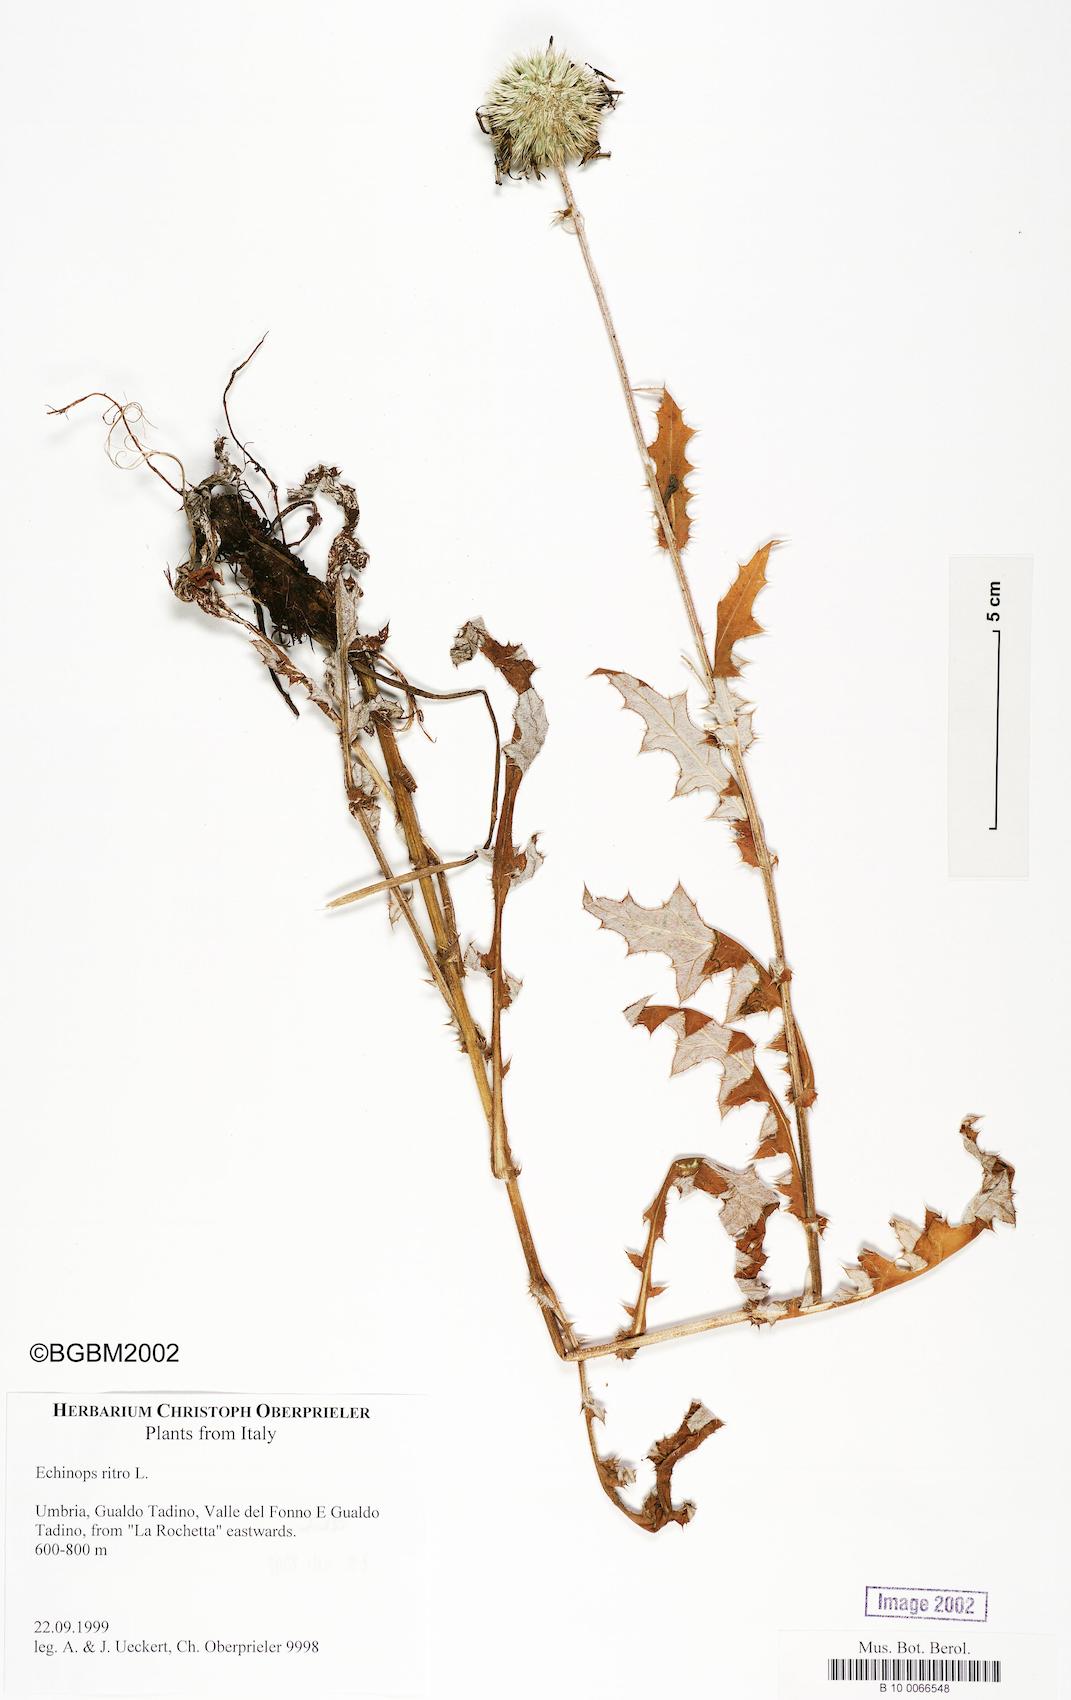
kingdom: Plantae
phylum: Tracheophyta
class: Magnoliopsida
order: Asterales
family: Asteraceae
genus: Echinops
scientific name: Echinops ritro
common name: Globe thistle
